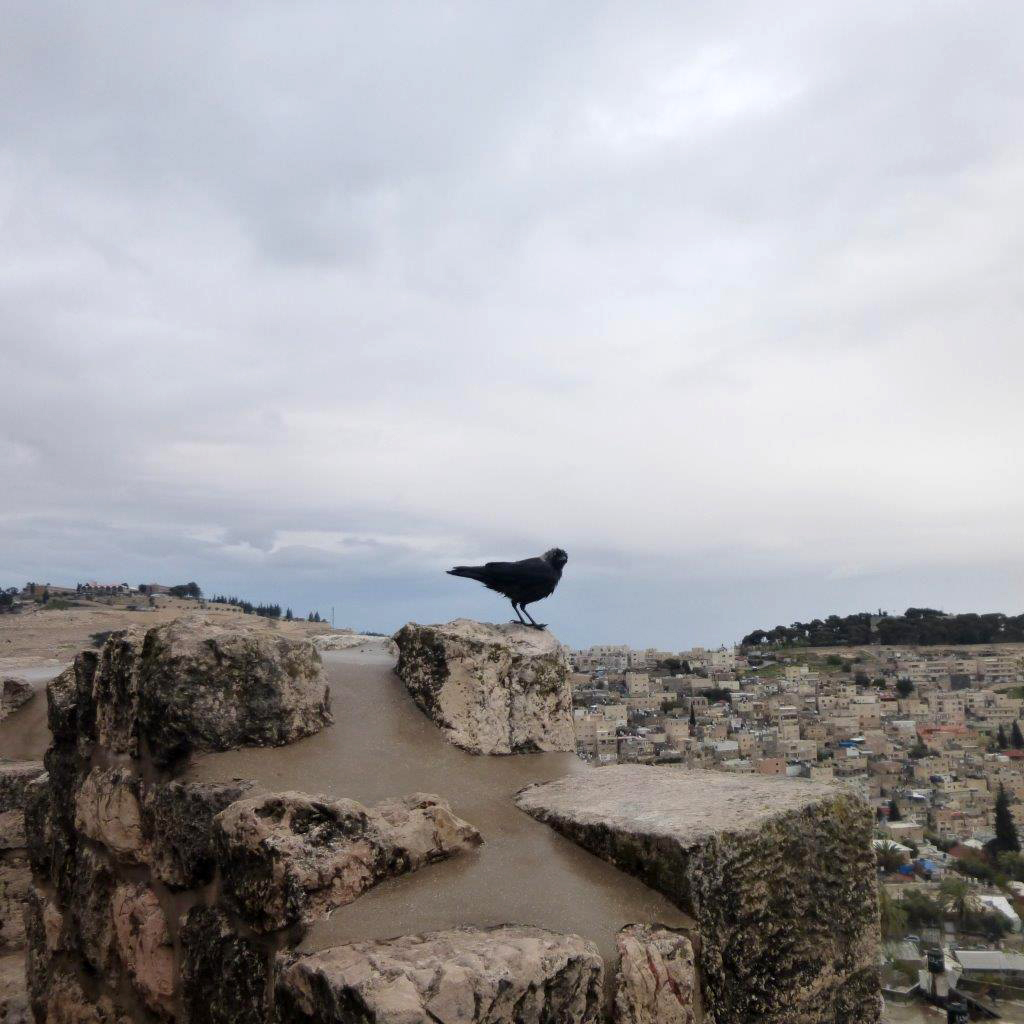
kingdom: Animalia
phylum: Chordata
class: Aves
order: Passeriformes
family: Corvidae
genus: Coloeus
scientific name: Coloeus monedula
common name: Western jackdaw
